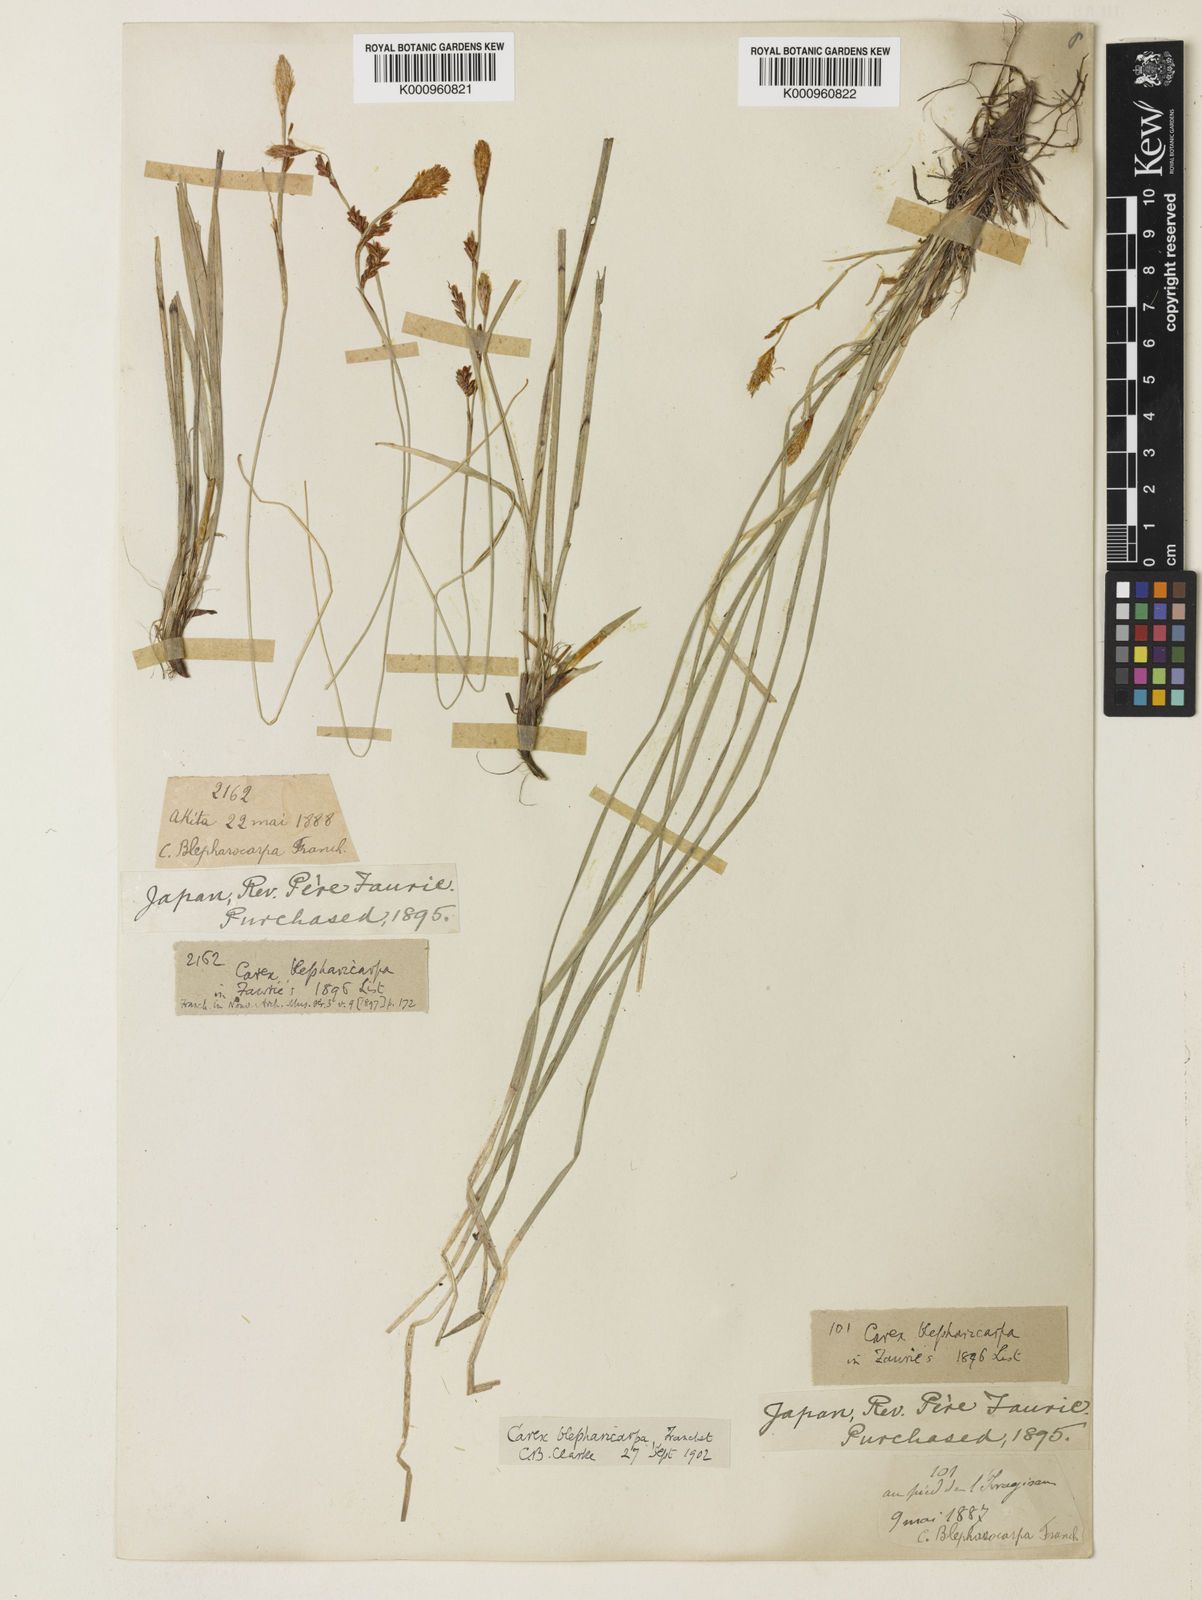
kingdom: Plantae
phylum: Tracheophyta
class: Liliopsida
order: Poales
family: Cyperaceae
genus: Carex
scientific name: Carex blepharicarpa
